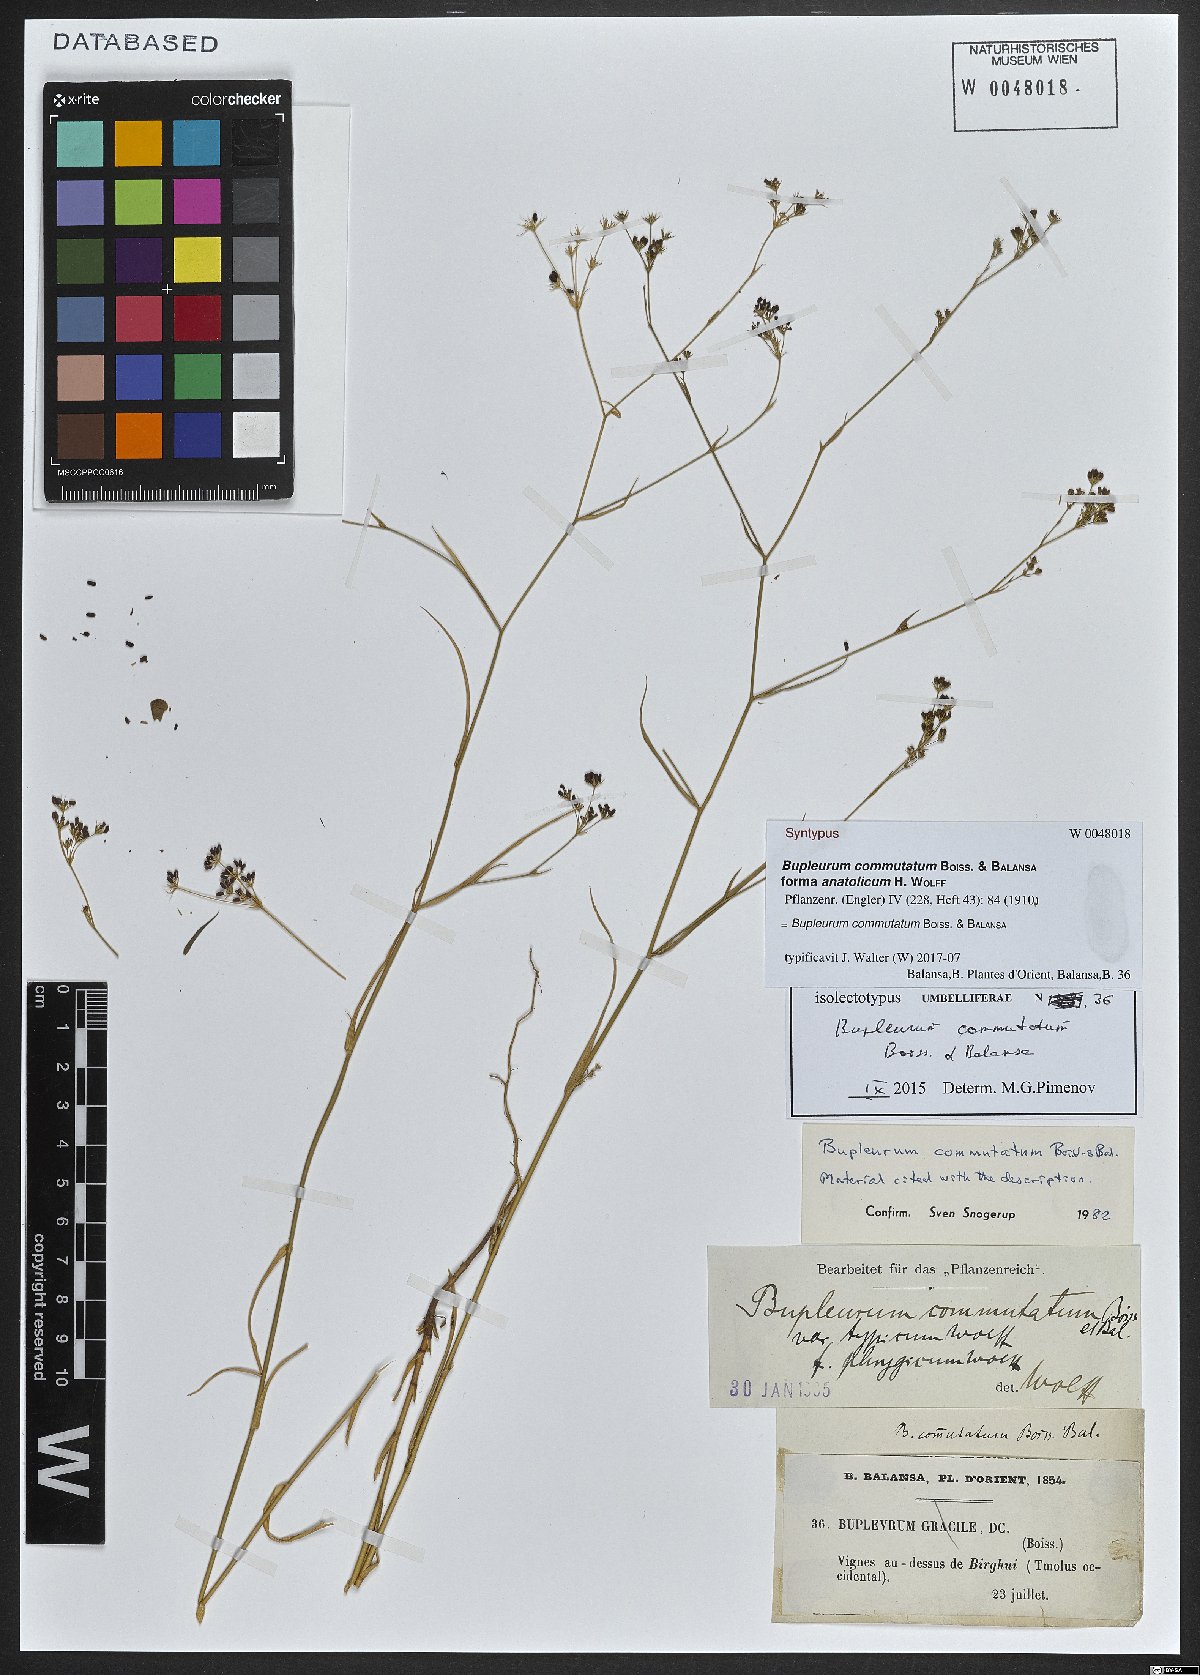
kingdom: Plantae
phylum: Tracheophyta
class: Magnoliopsida
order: Apiales
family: Apiaceae
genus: Bupleurum
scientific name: Bupleurum commutatum
